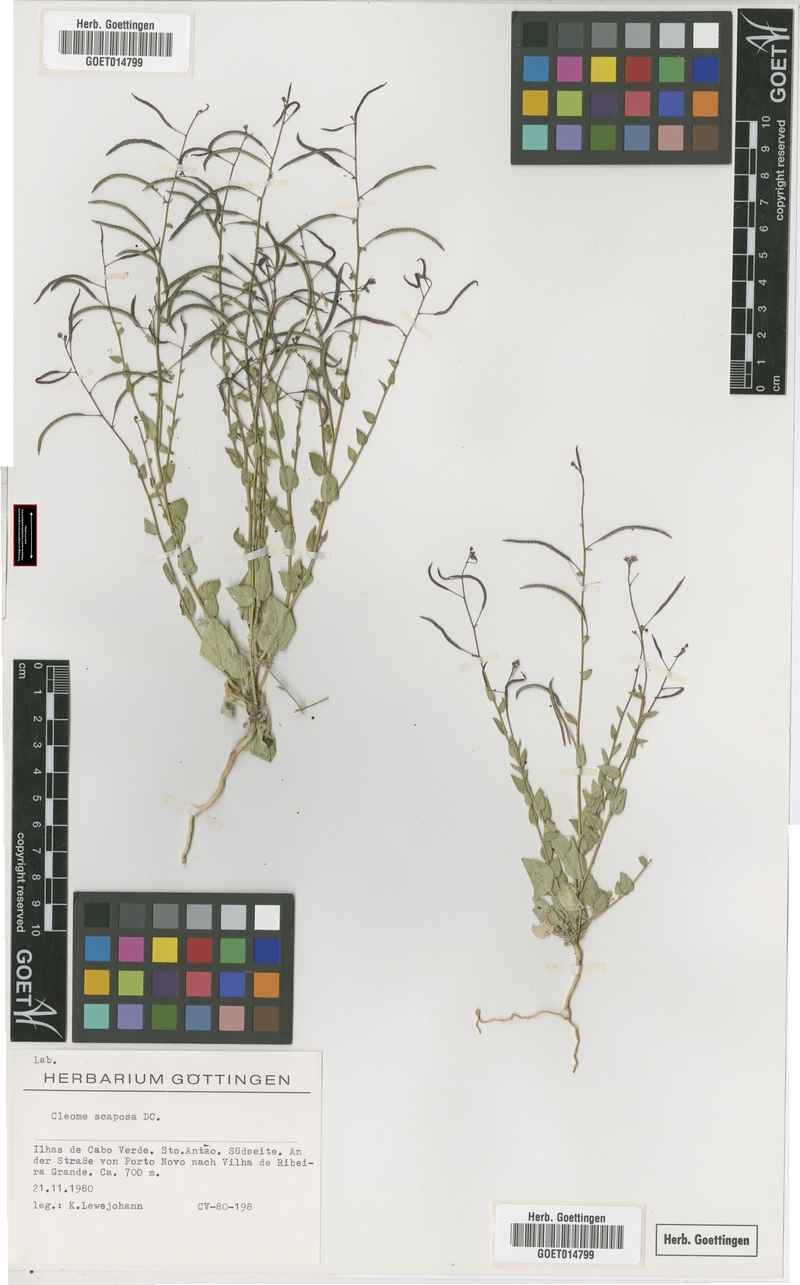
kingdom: Plantae
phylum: Tracheophyta
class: Magnoliopsida
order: Brassicales
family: Cleomaceae
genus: Gilgella
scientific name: Gilgella scaposa
